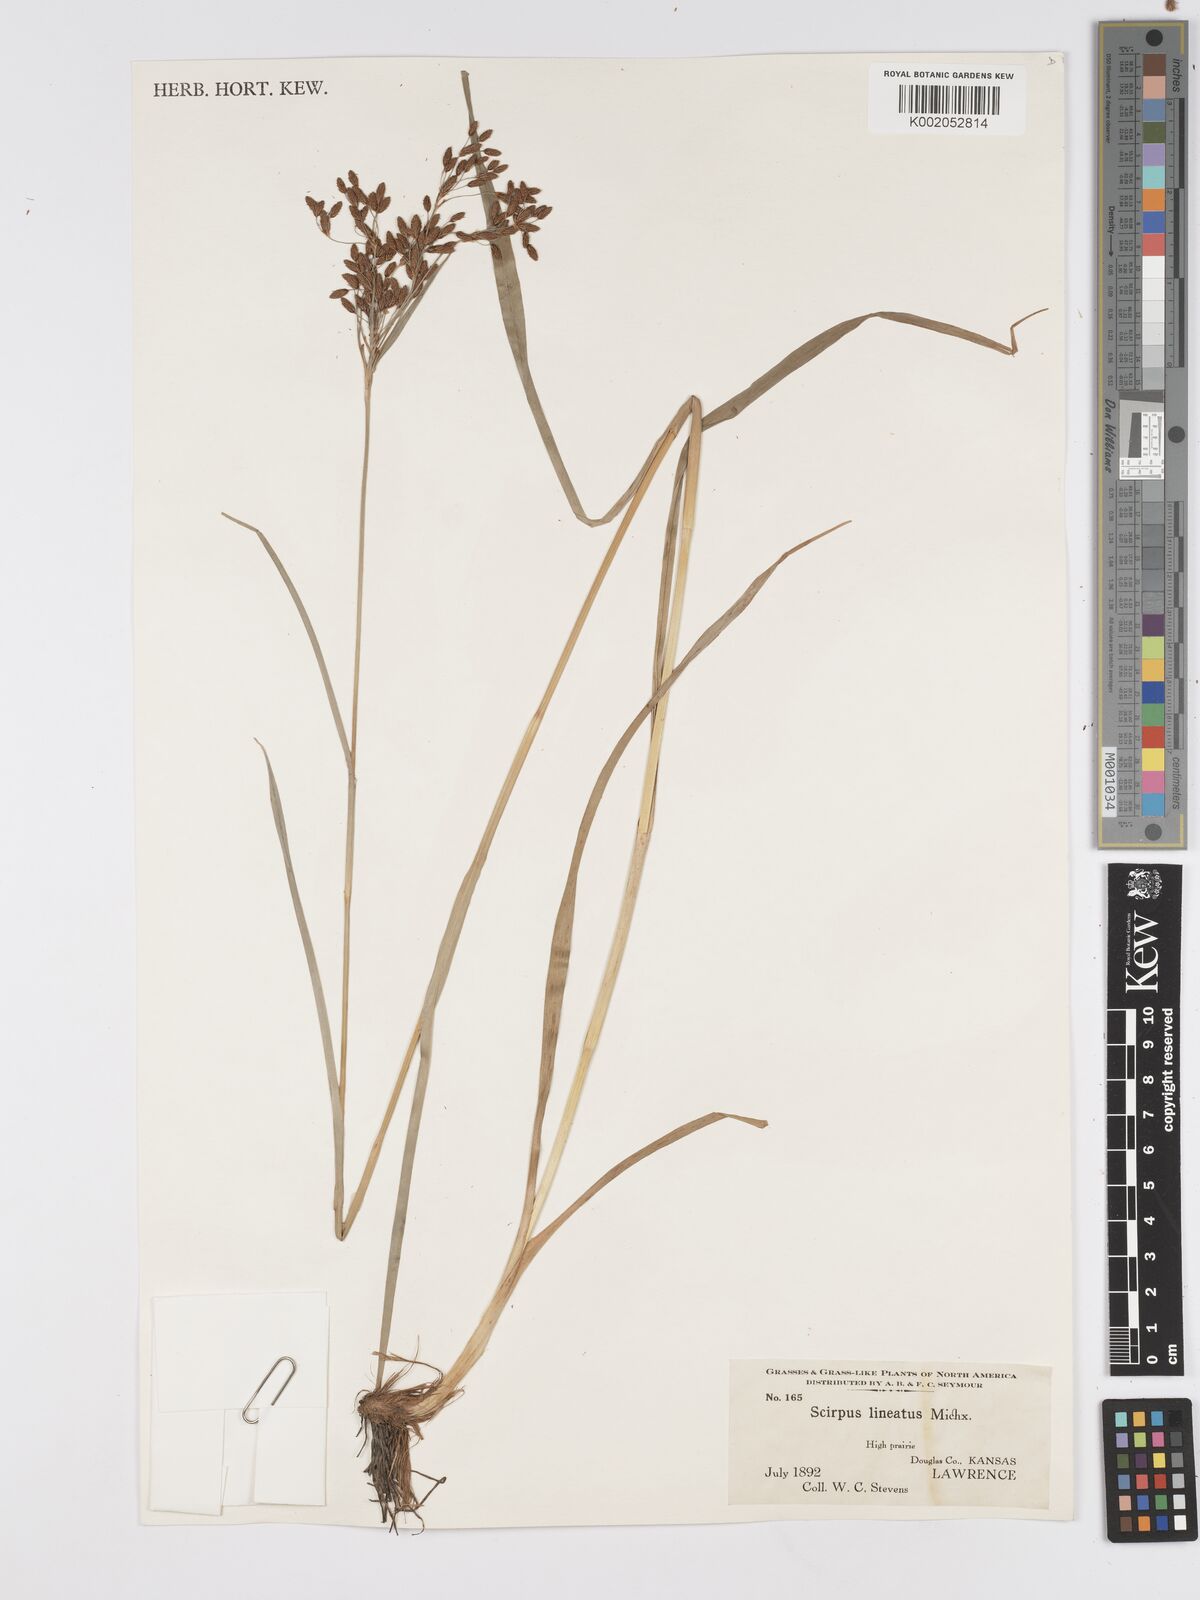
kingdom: Plantae
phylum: Tracheophyta
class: Liliopsida
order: Poales
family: Cyperaceae
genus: Scirpus
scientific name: Scirpus lineatus
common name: Drooping bulrush
